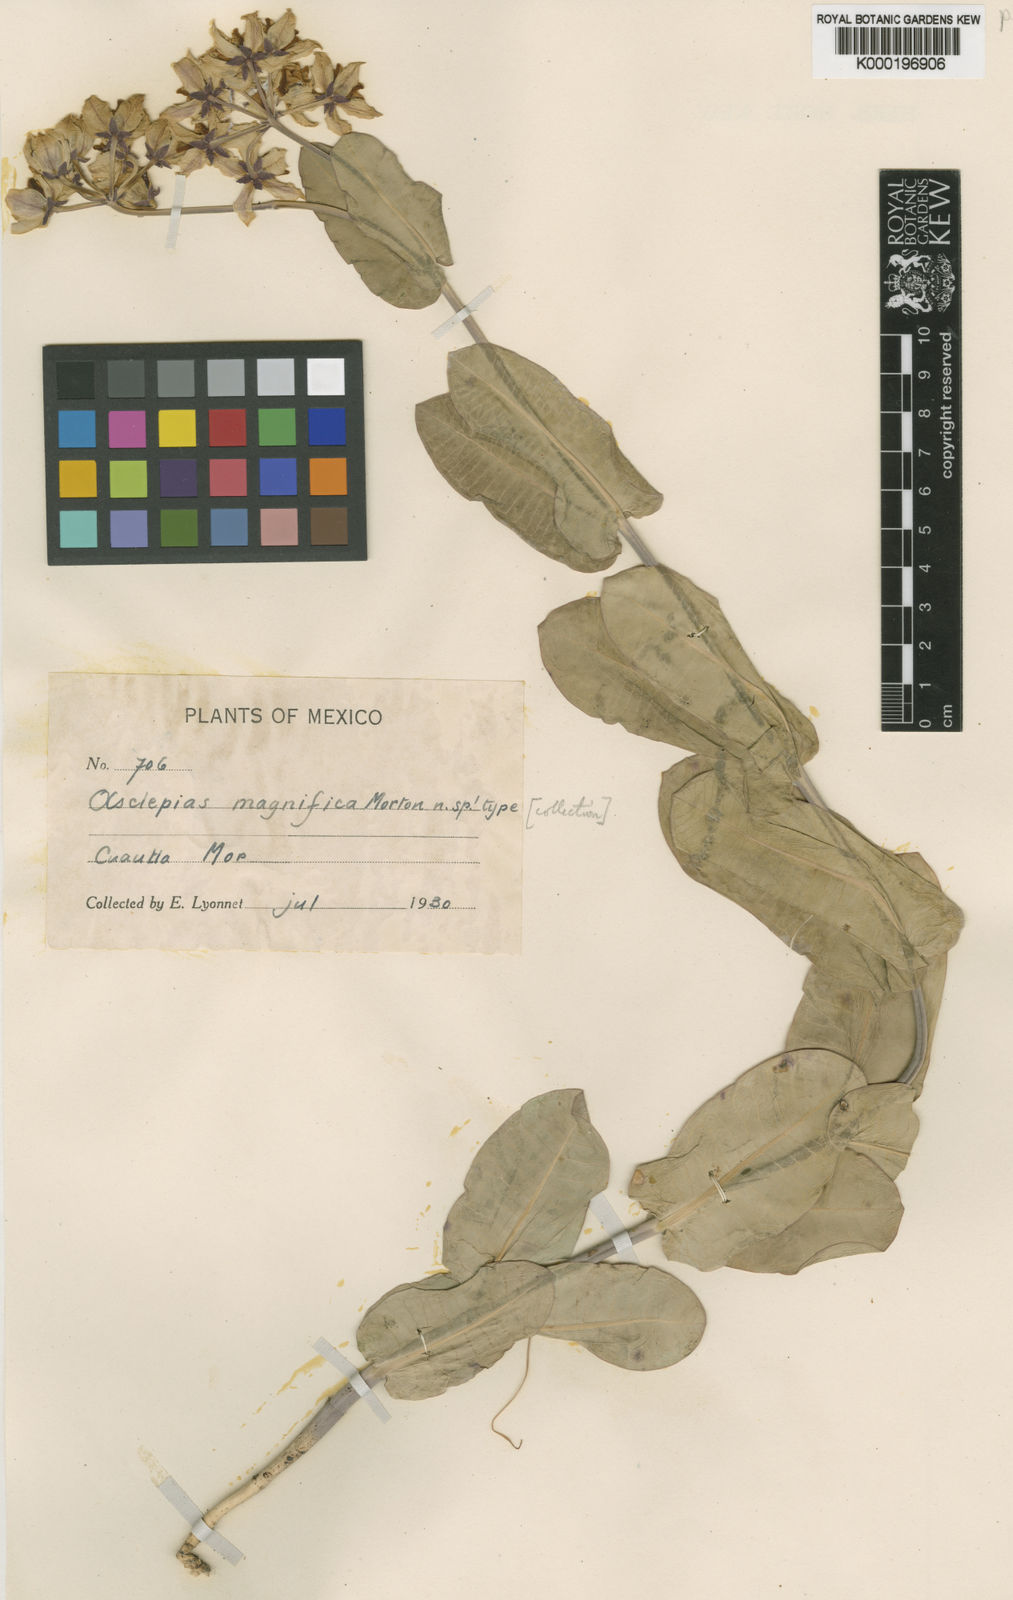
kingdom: Plantae
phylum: Tracheophyta
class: Magnoliopsida
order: Gentianales
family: Apocynaceae
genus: Pachycarpus
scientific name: Pachycarpus grandiflorus
